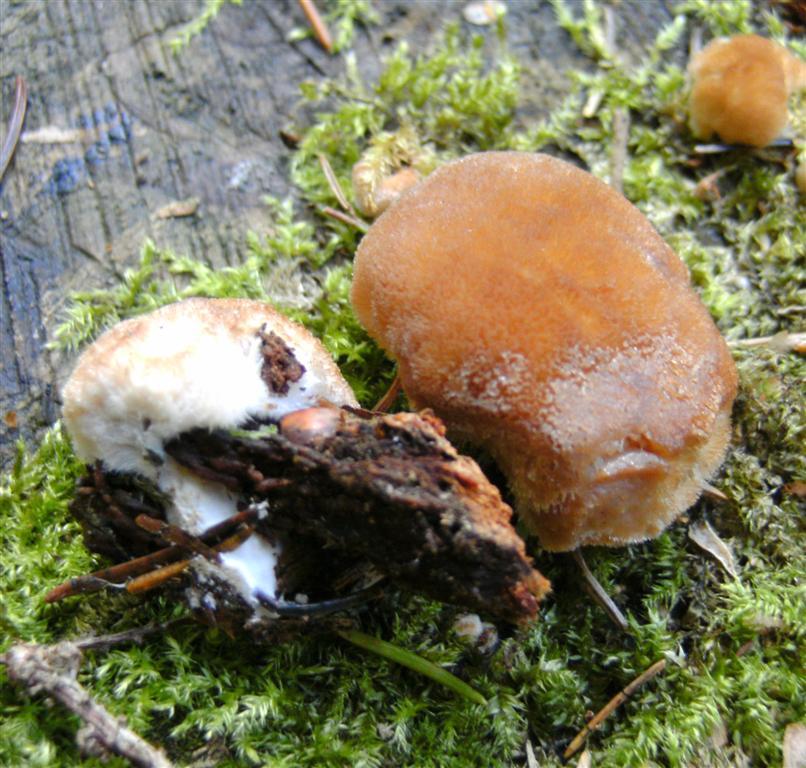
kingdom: Fungi
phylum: Basidiomycota
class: Agaricomycetes
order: Polyporales
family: Dacryobolaceae
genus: Postia
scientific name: Postia ptychogaster
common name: støvende kødporesvamp
